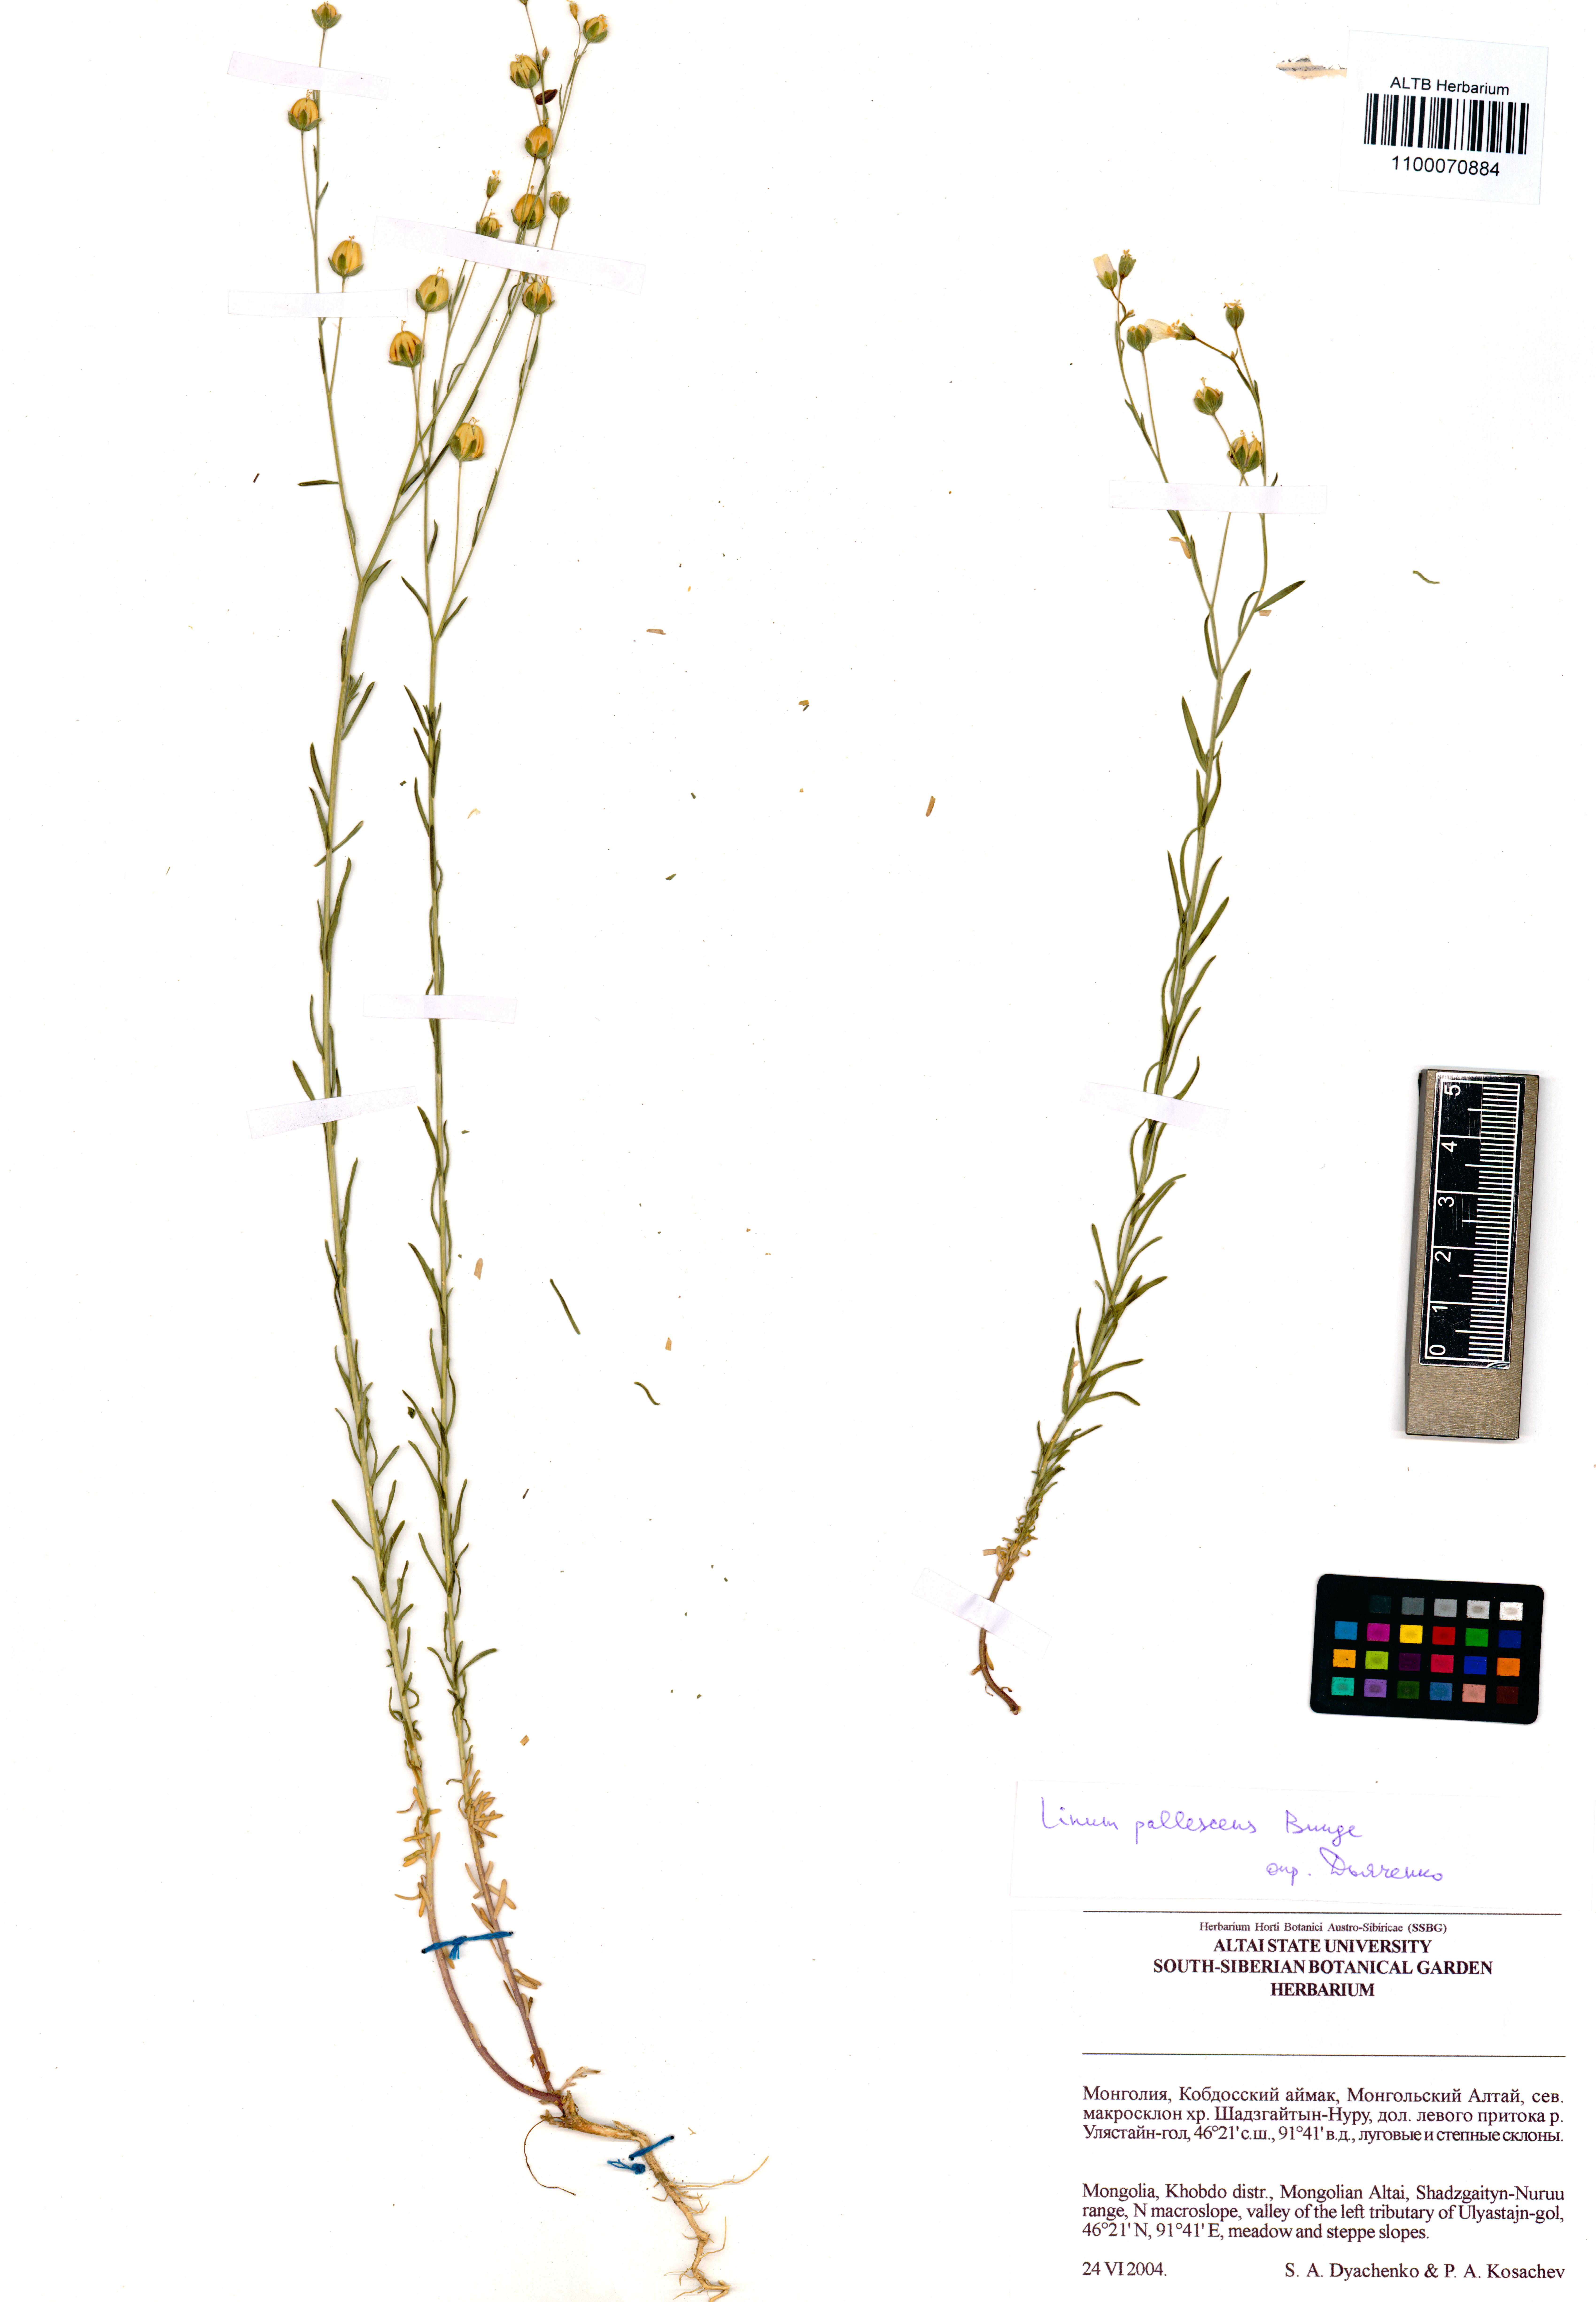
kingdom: Plantae
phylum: Tracheophyta
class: Magnoliopsida
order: Malpighiales
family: Linaceae
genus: Linum
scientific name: Linum pallescens
